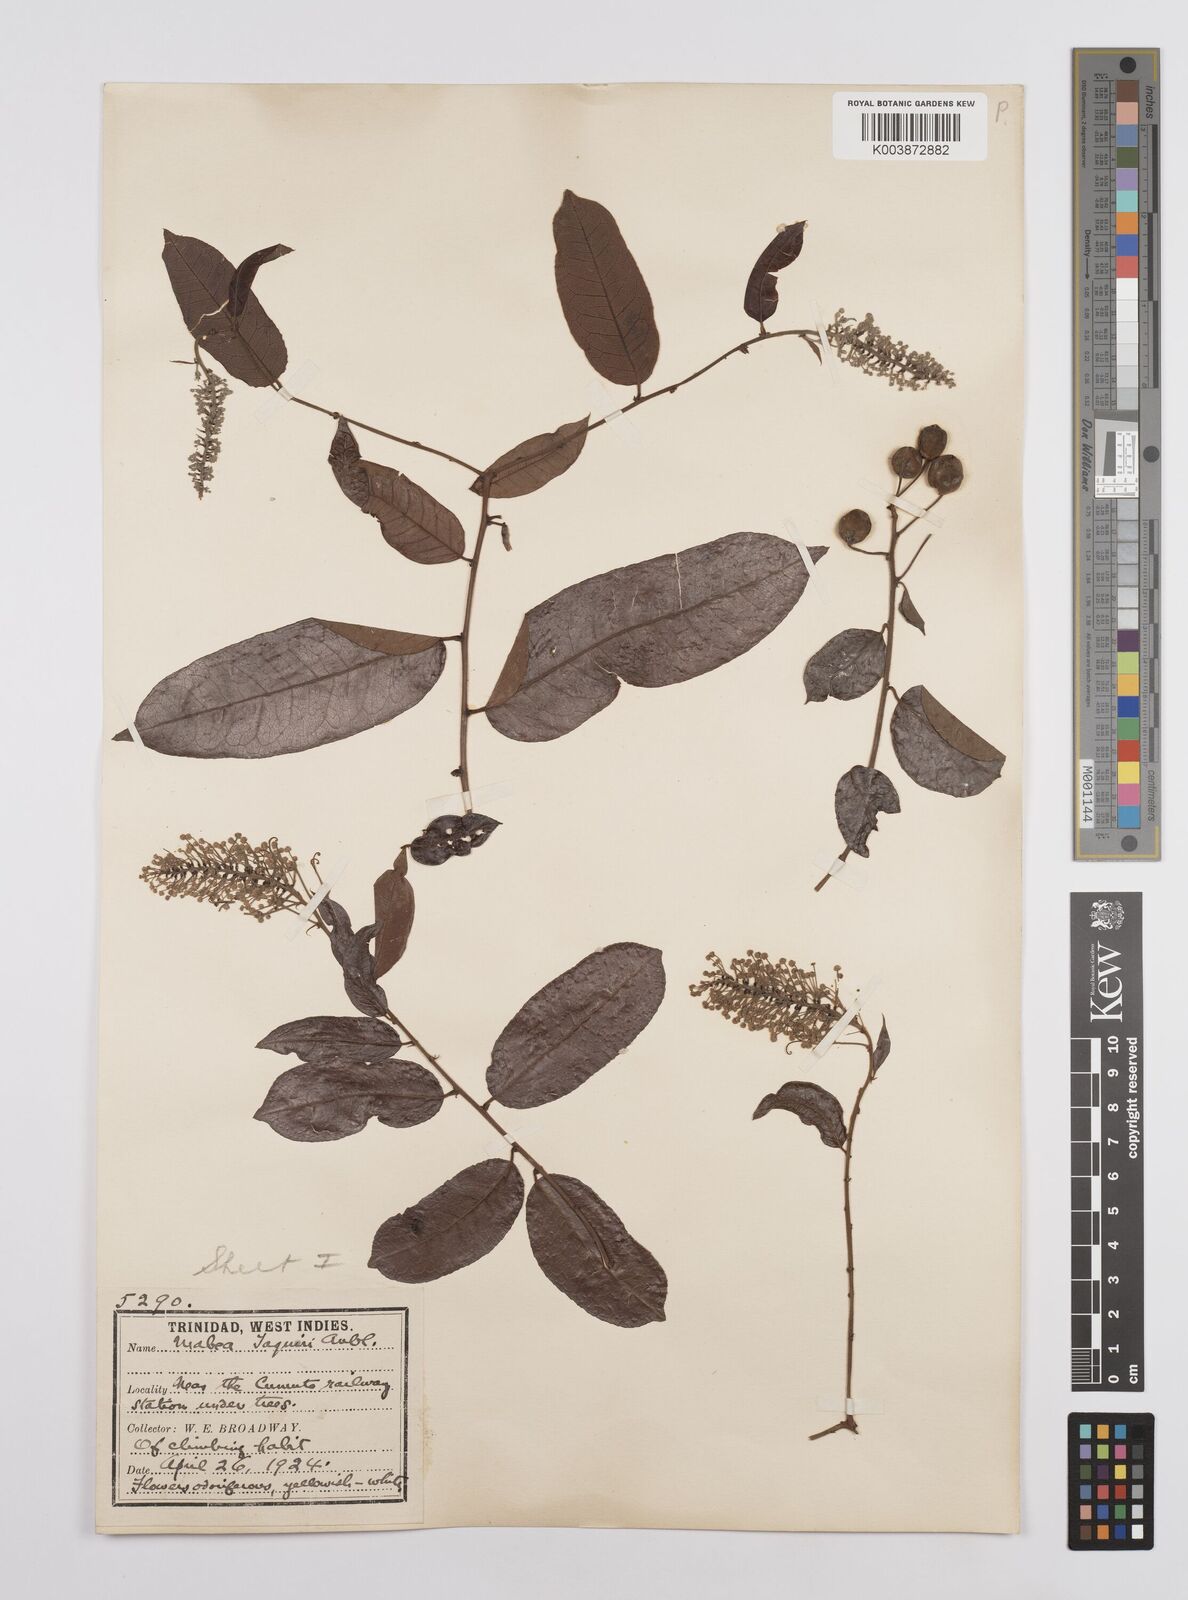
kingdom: Plantae
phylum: Tracheophyta
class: Magnoliopsida
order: Malpighiales
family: Euphorbiaceae
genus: Mabea
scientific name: Mabea taquari
